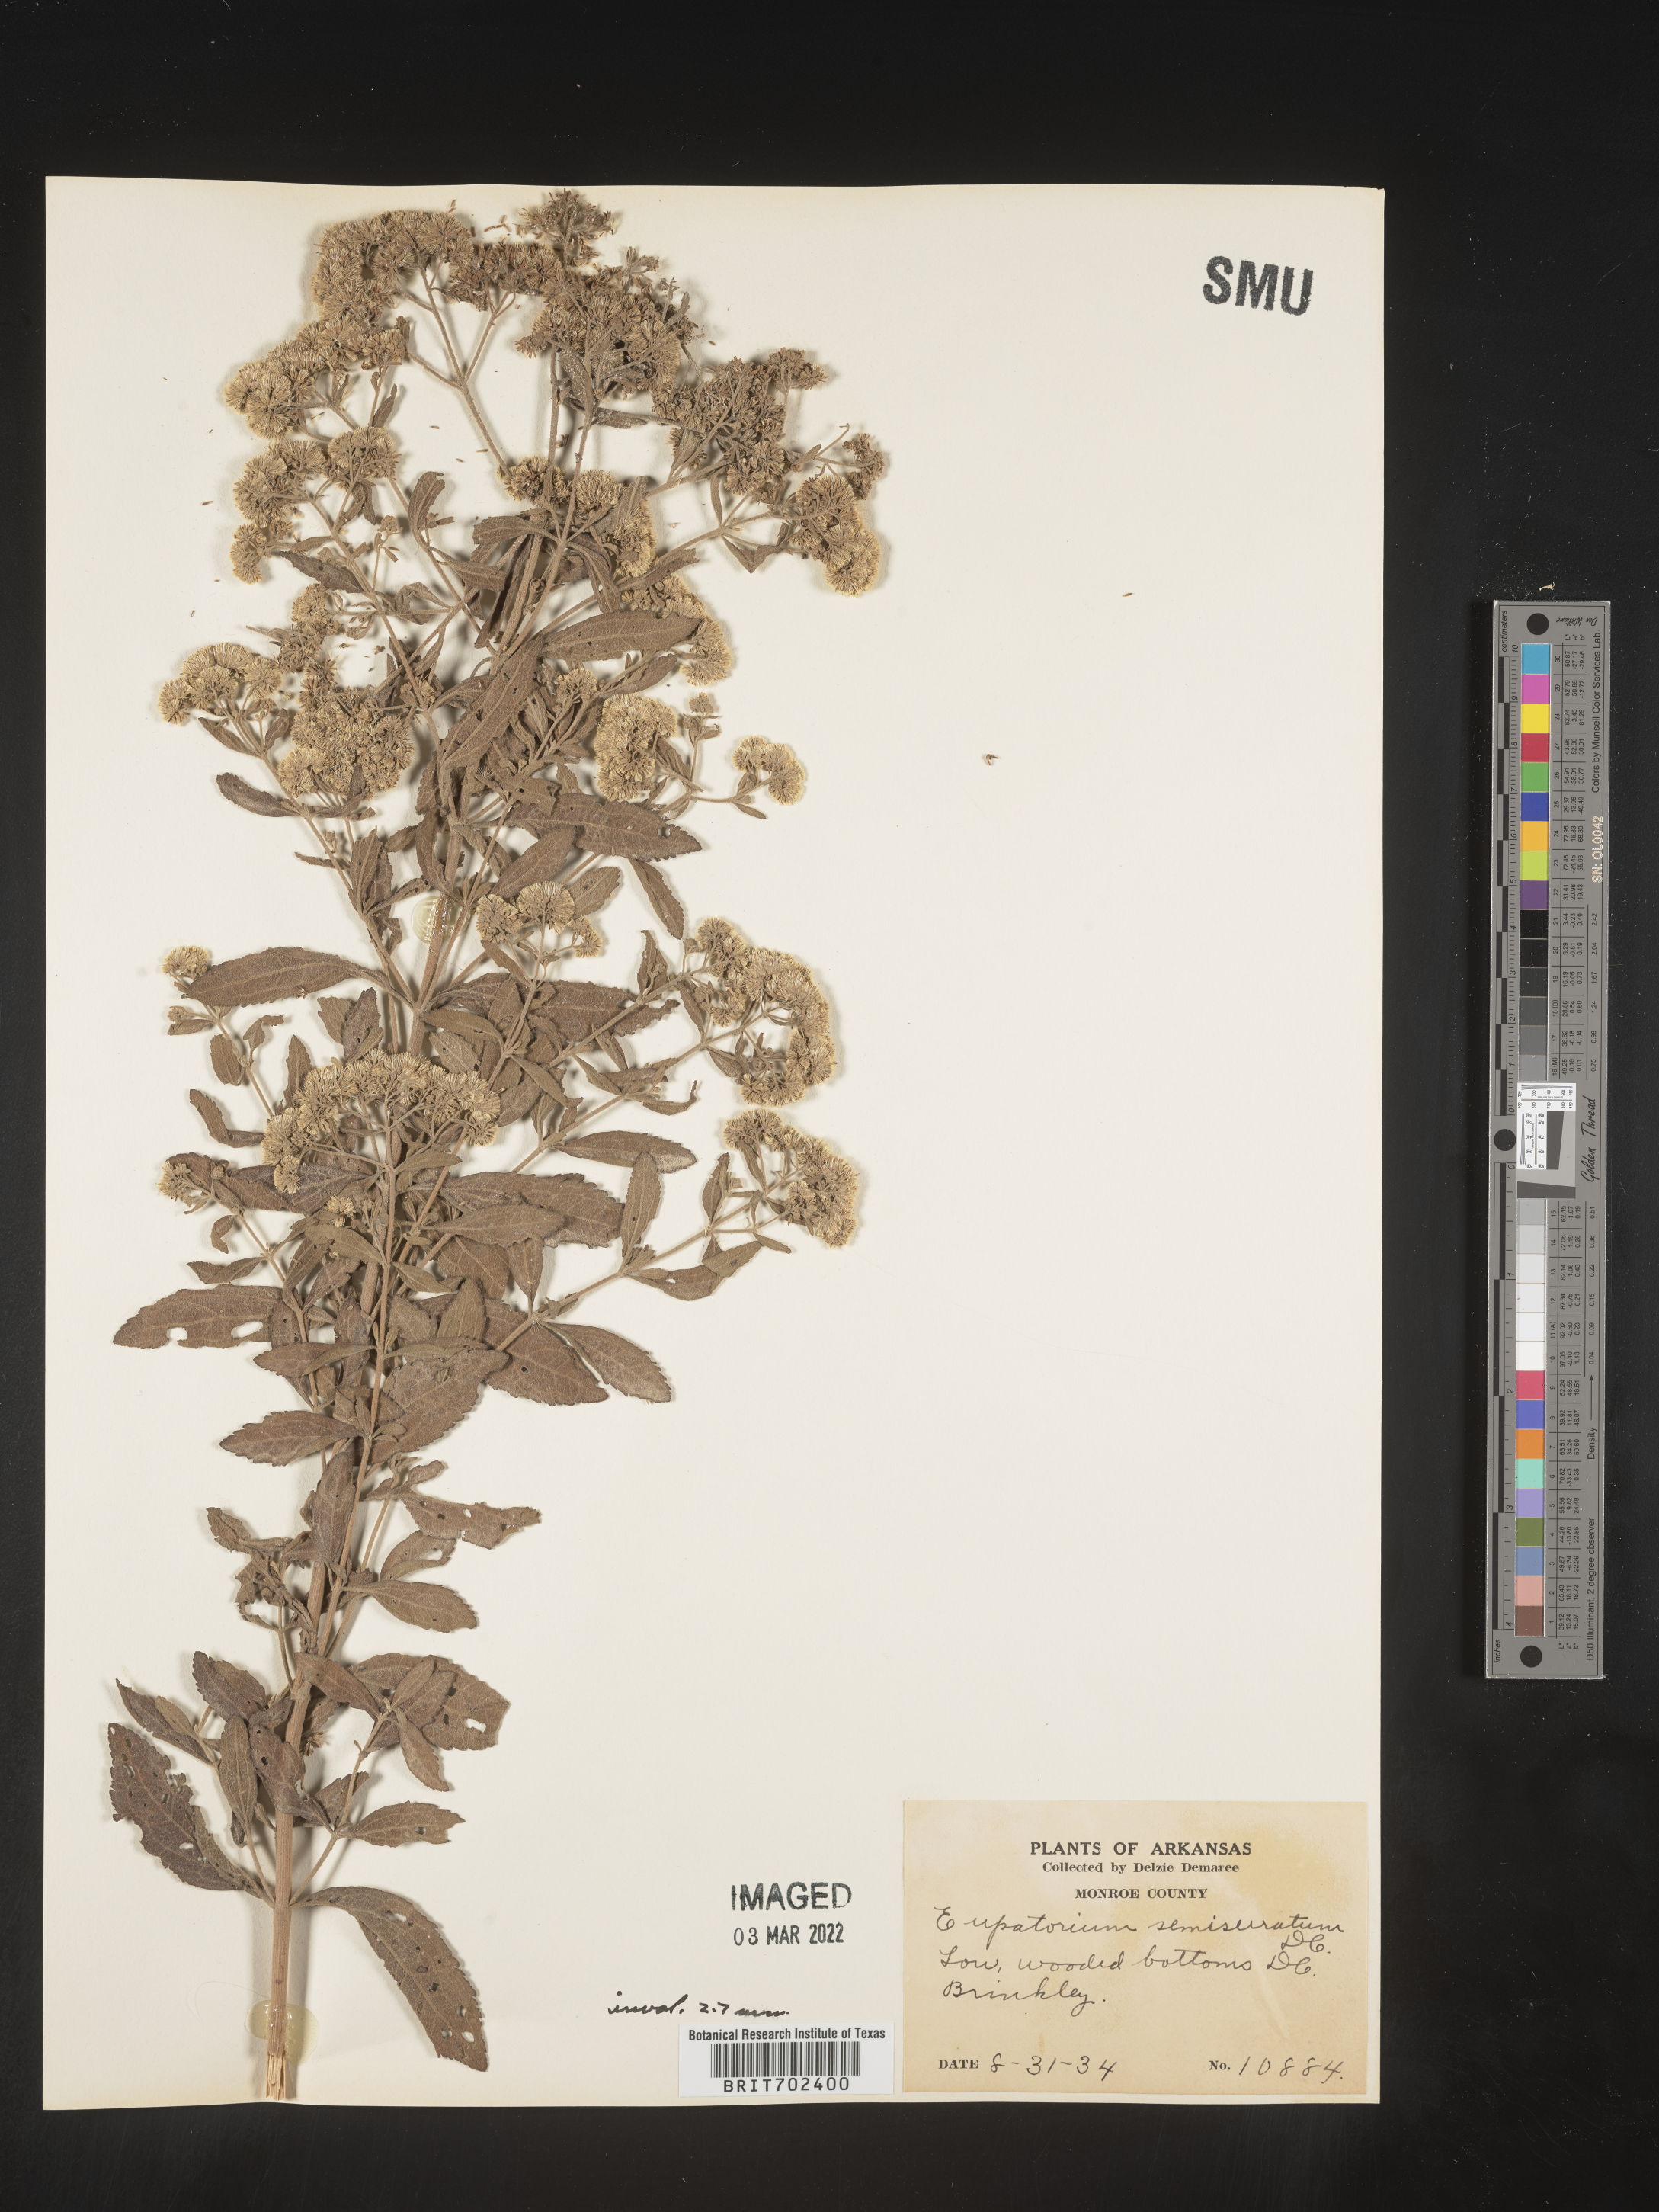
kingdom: Plantae
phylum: Tracheophyta
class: Magnoliopsida
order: Asterales
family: Asteraceae
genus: Eupatorium
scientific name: Eupatorium semiserratum
